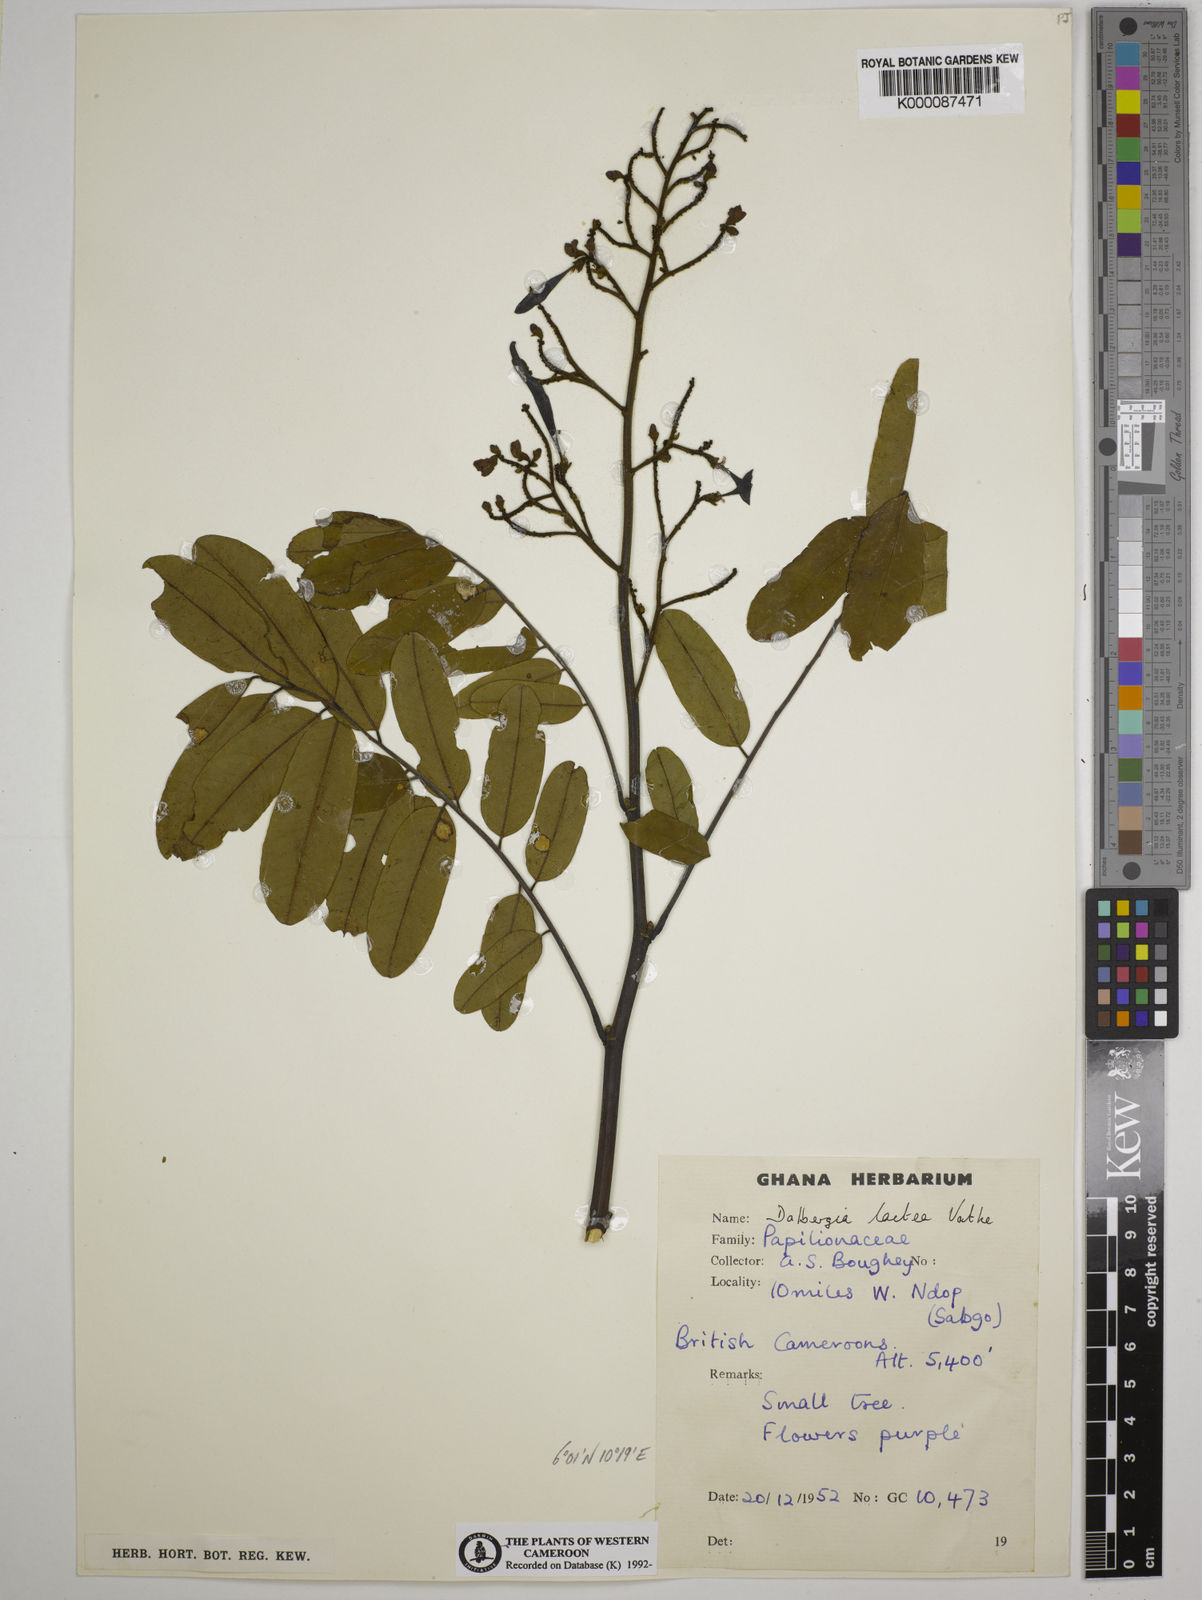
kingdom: Plantae
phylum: Tracheophyta
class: Magnoliopsida
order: Fabales
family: Fabaceae
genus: Dalbergia
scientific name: Dalbergia lactea
